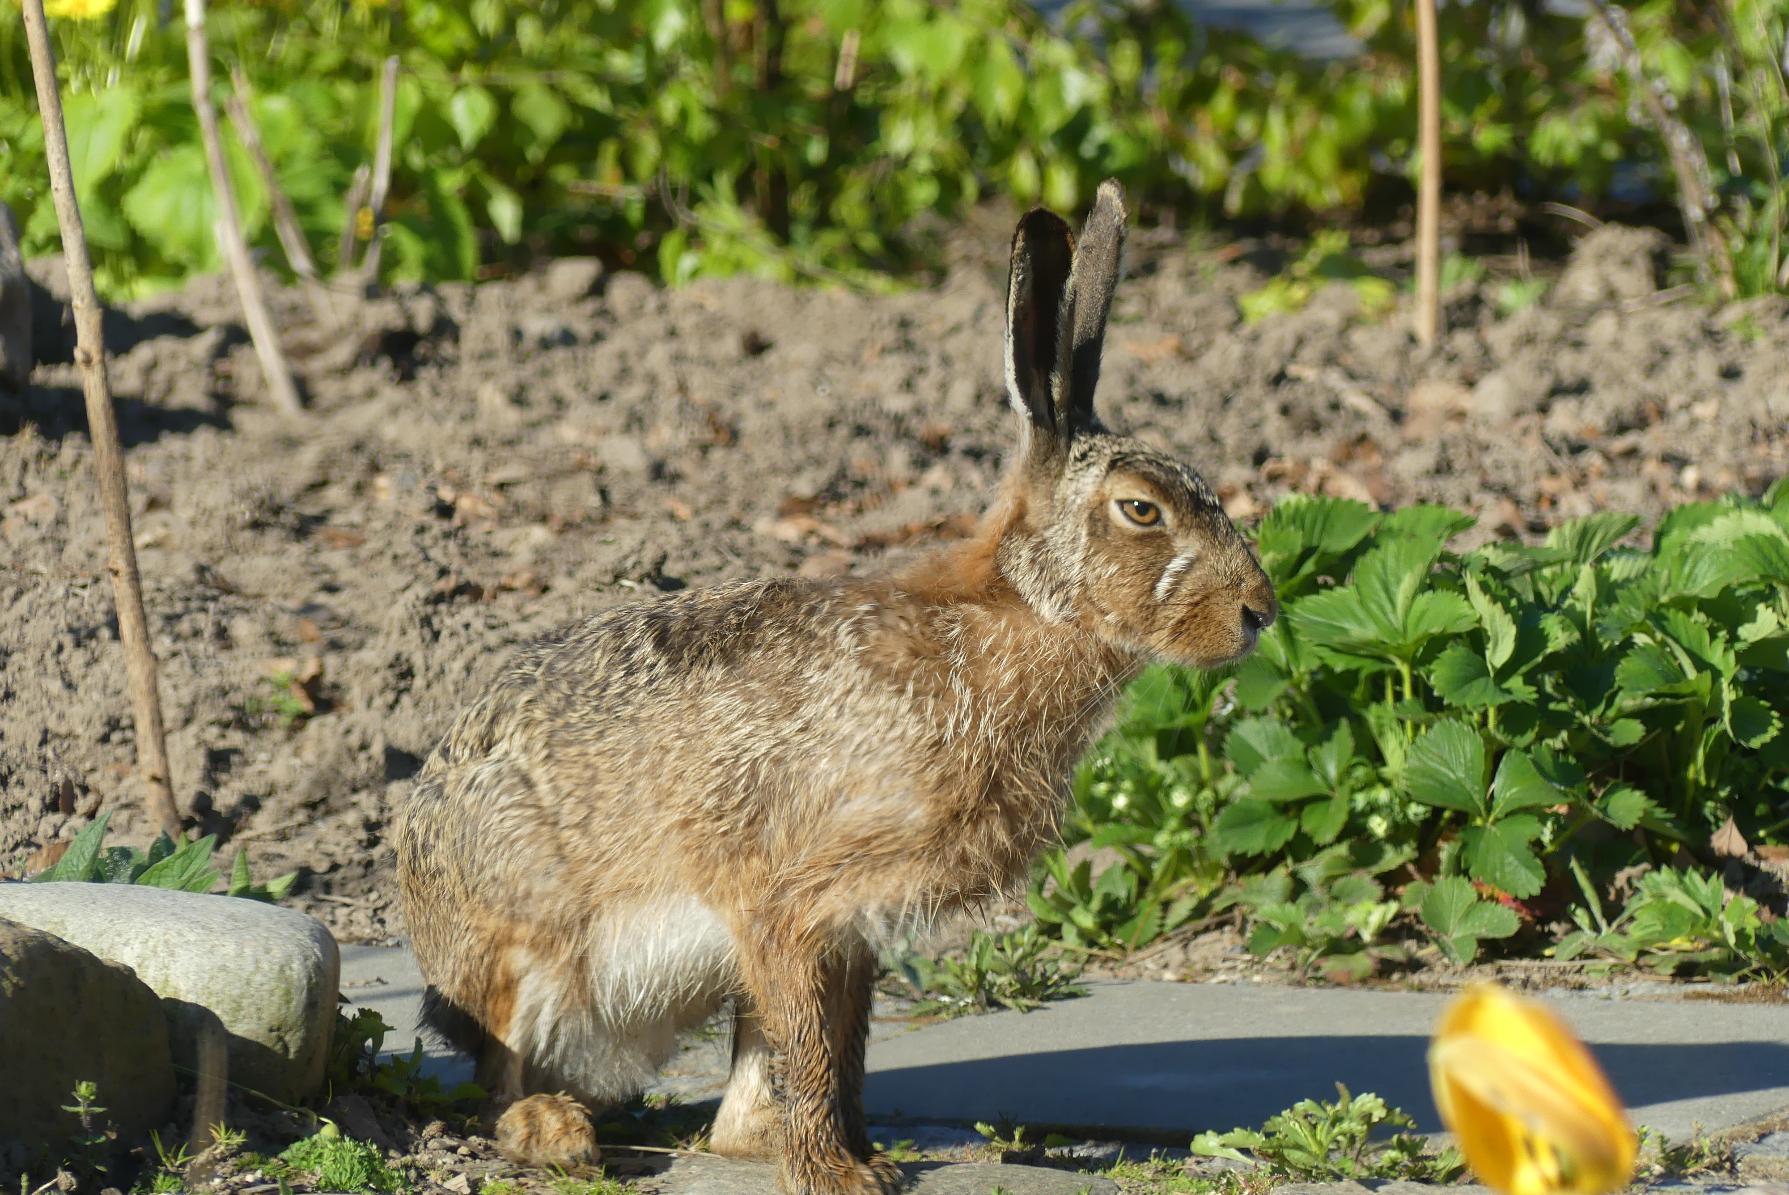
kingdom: Animalia
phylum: Chordata
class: Mammalia
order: Lagomorpha
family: Leporidae
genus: Lepus
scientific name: Lepus europaeus
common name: Hare
